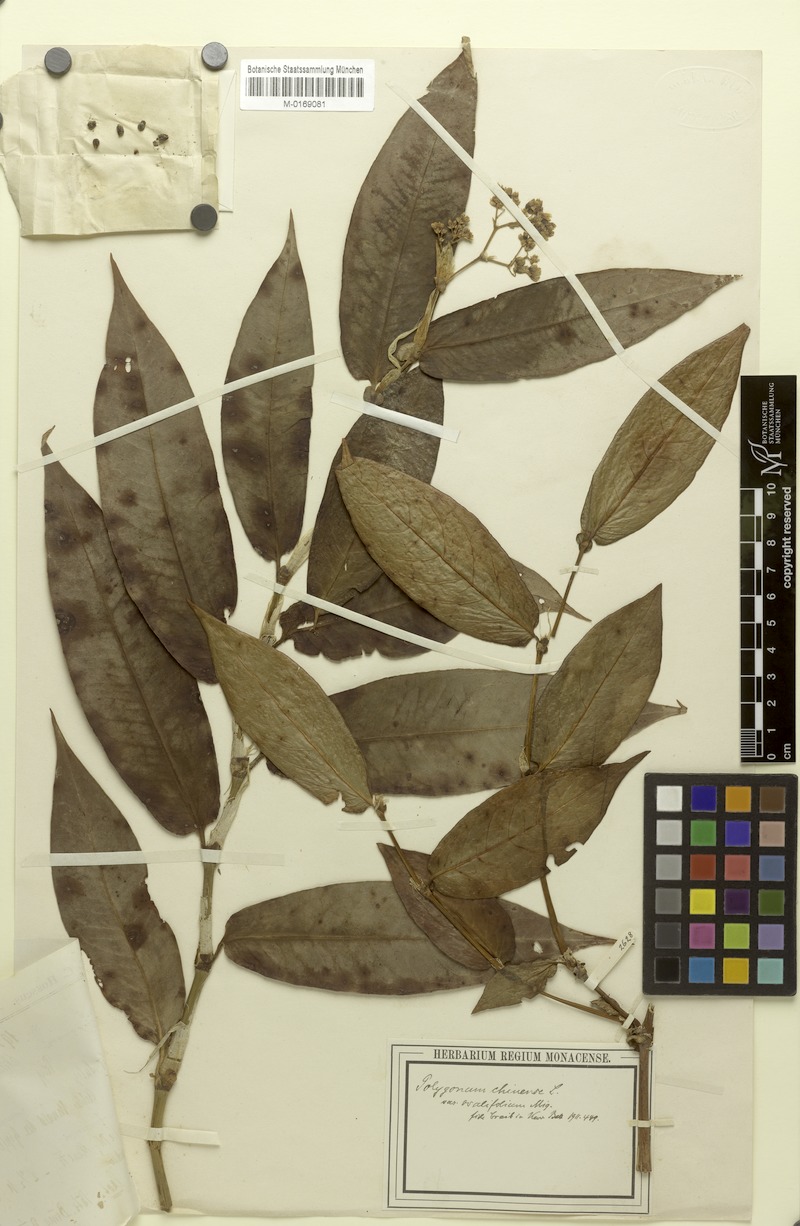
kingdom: Plantae
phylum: Tracheophyta
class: Magnoliopsida
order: Caryophyllales
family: Polygonaceae
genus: Persicaria
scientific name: Persicaria stagnina
